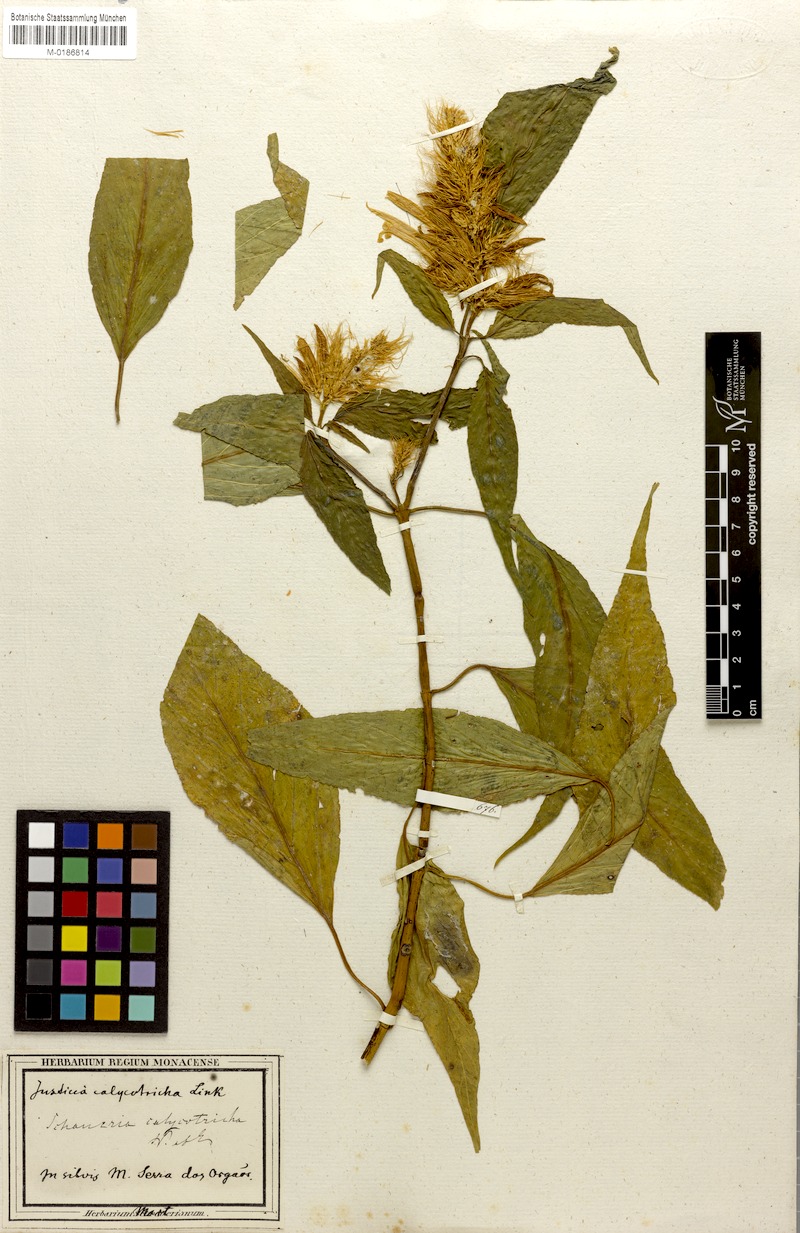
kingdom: Plantae
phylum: Tracheophyta
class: Magnoliopsida
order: Lamiales
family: Acanthaceae
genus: Schaueria
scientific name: Schaueria calytricha
